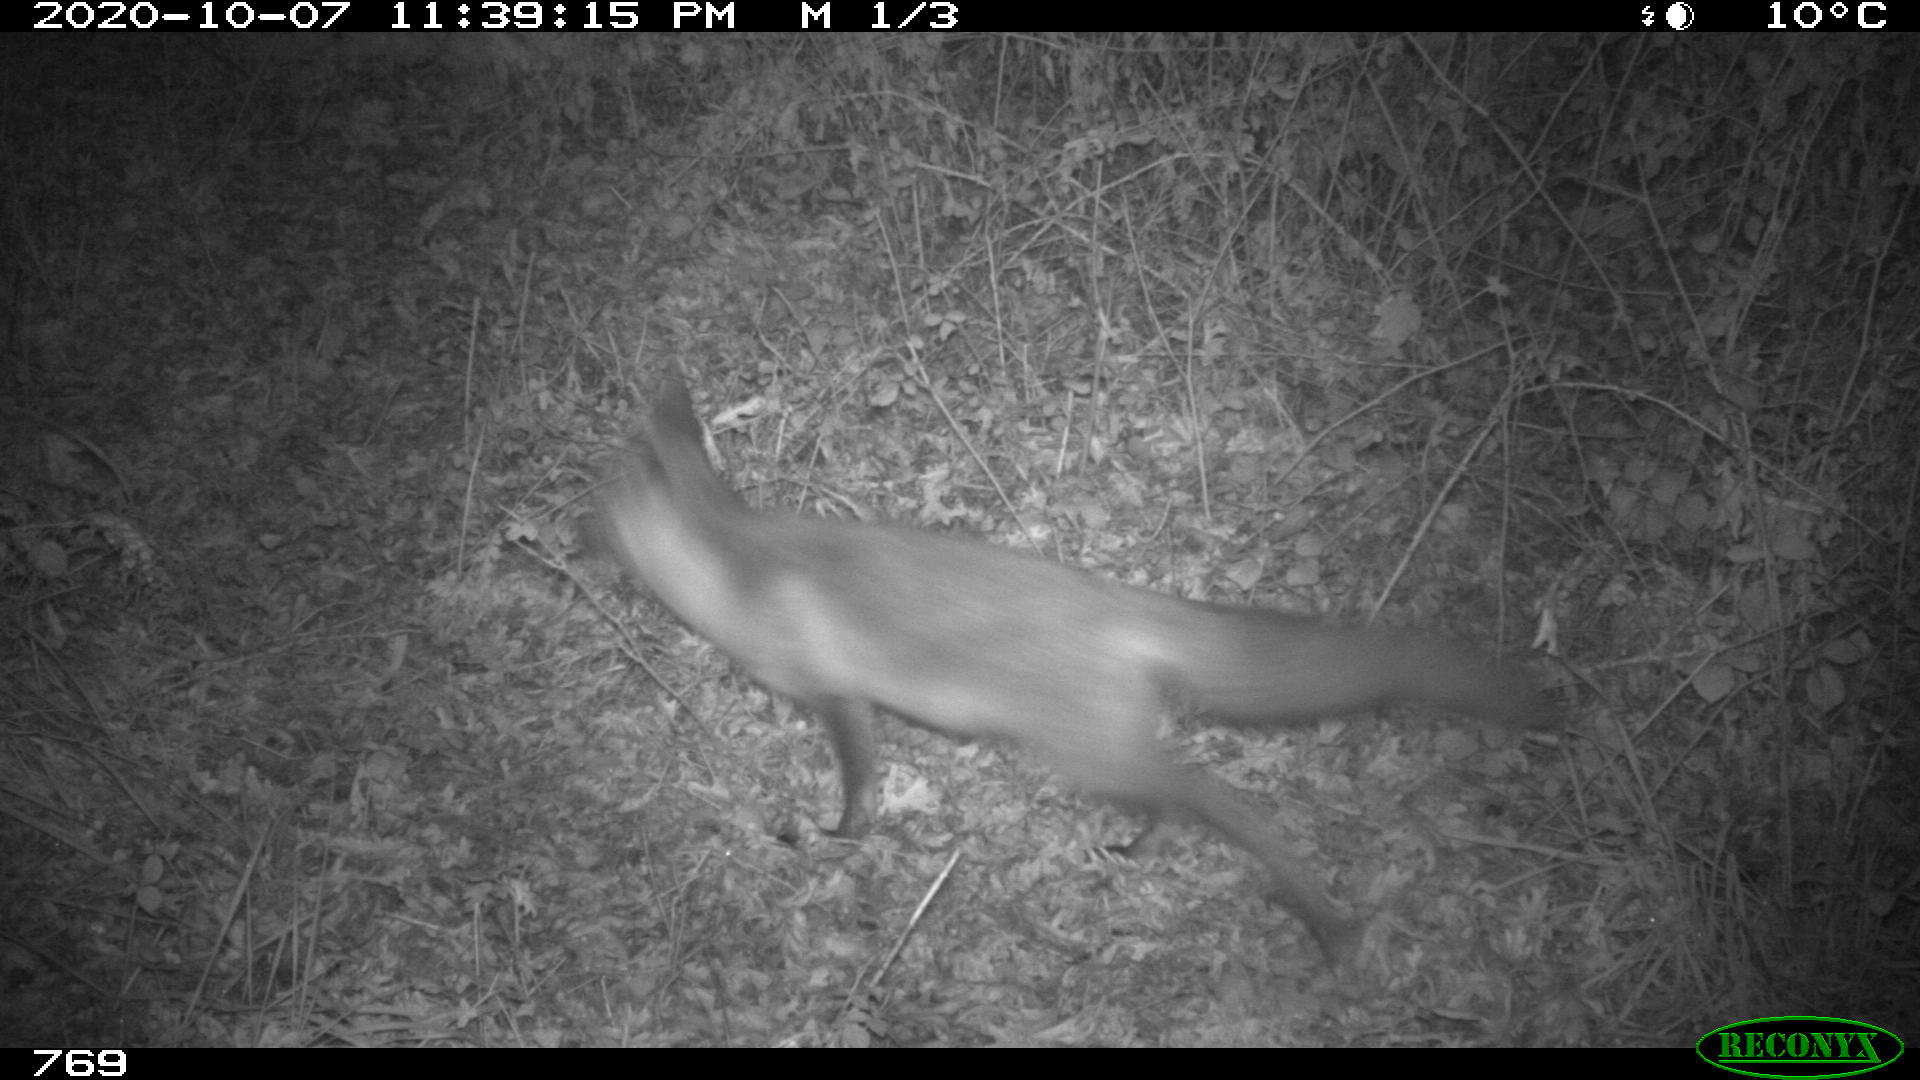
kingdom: Animalia
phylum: Chordata
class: Mammalia
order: Carnivora
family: Canidae
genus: Vulpes
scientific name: Vulpes vulpes
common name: Red fox
